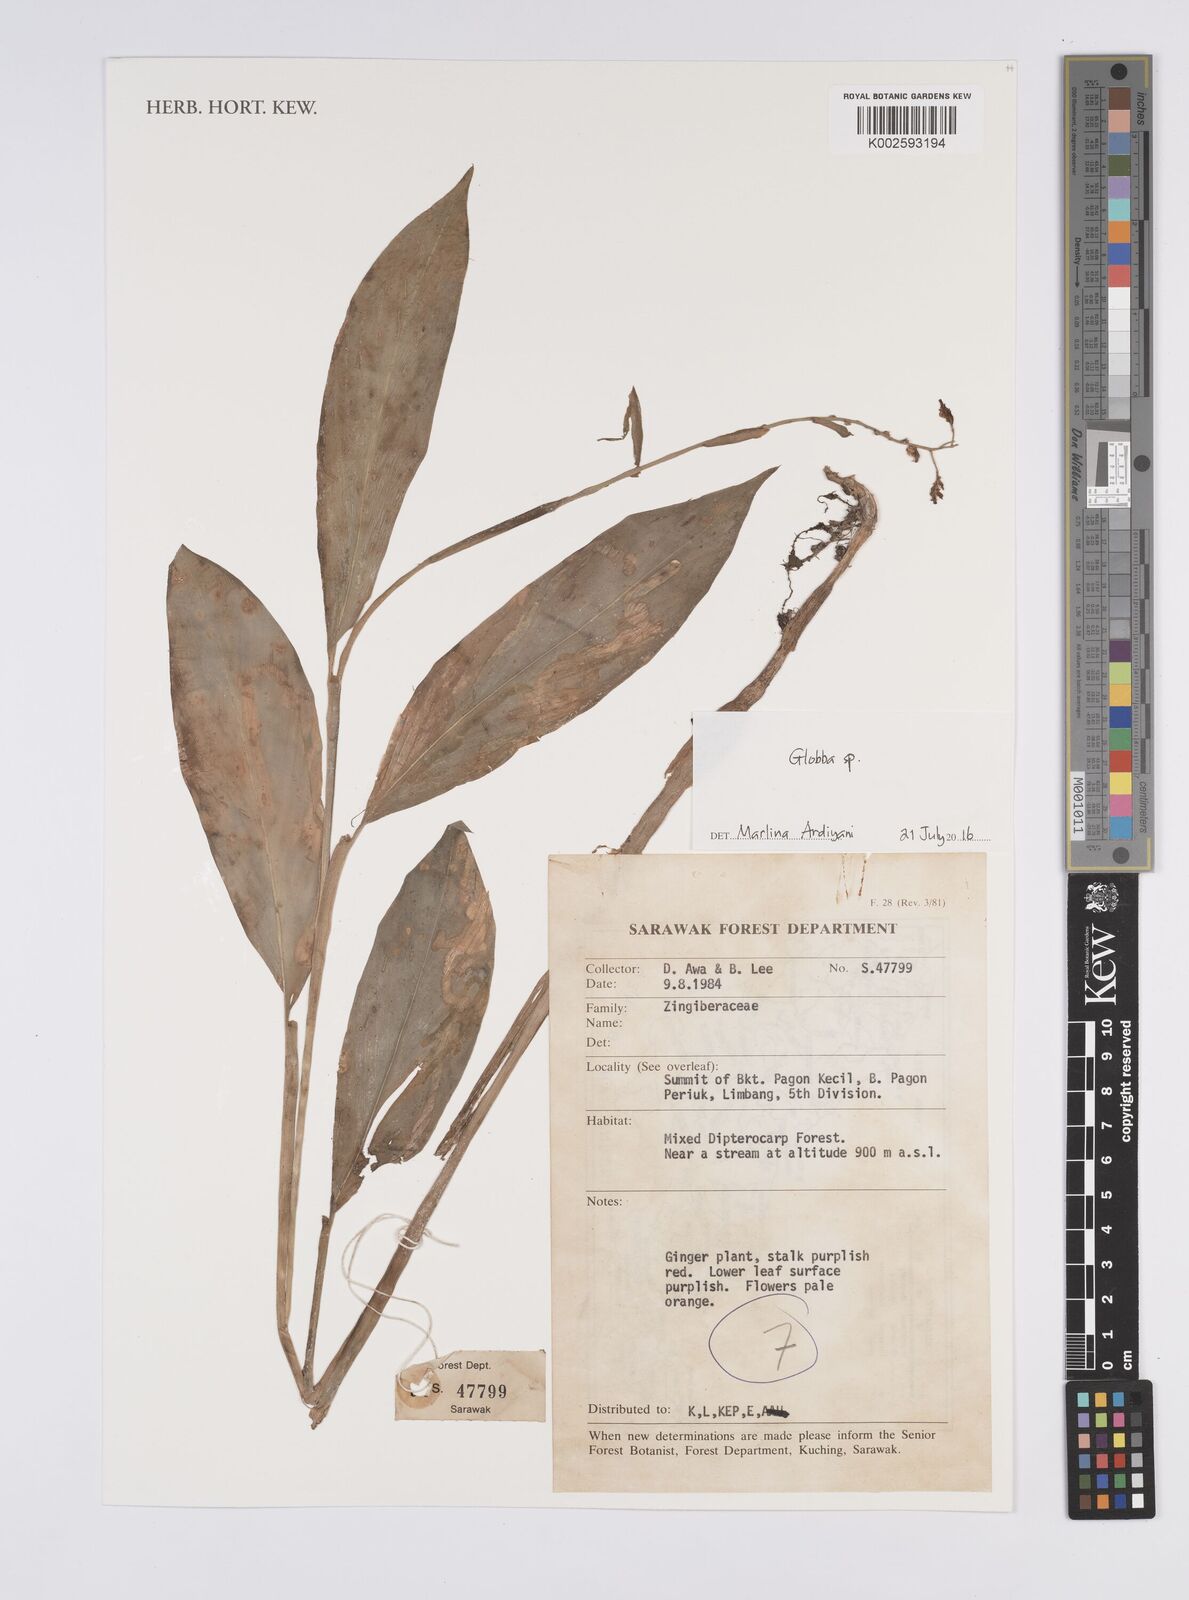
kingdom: Plantae
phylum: Tracheophyta
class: Liliopsida
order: Zingiberales
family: Zingiberaceae
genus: Globba
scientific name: Globba
